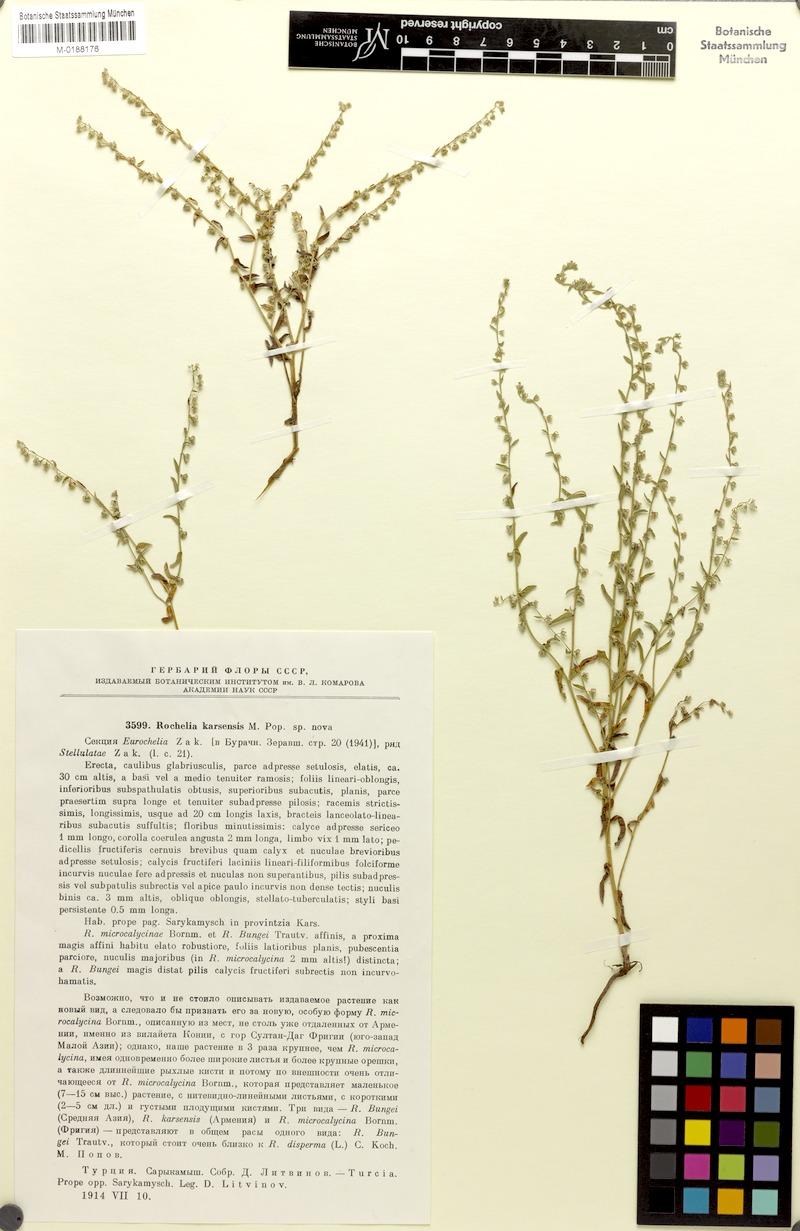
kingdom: Plantae
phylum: Tracheophyta
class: Magnoliopsida
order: Boraginales
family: Boraginaceae
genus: Rochelia
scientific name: Rochelia disperma
